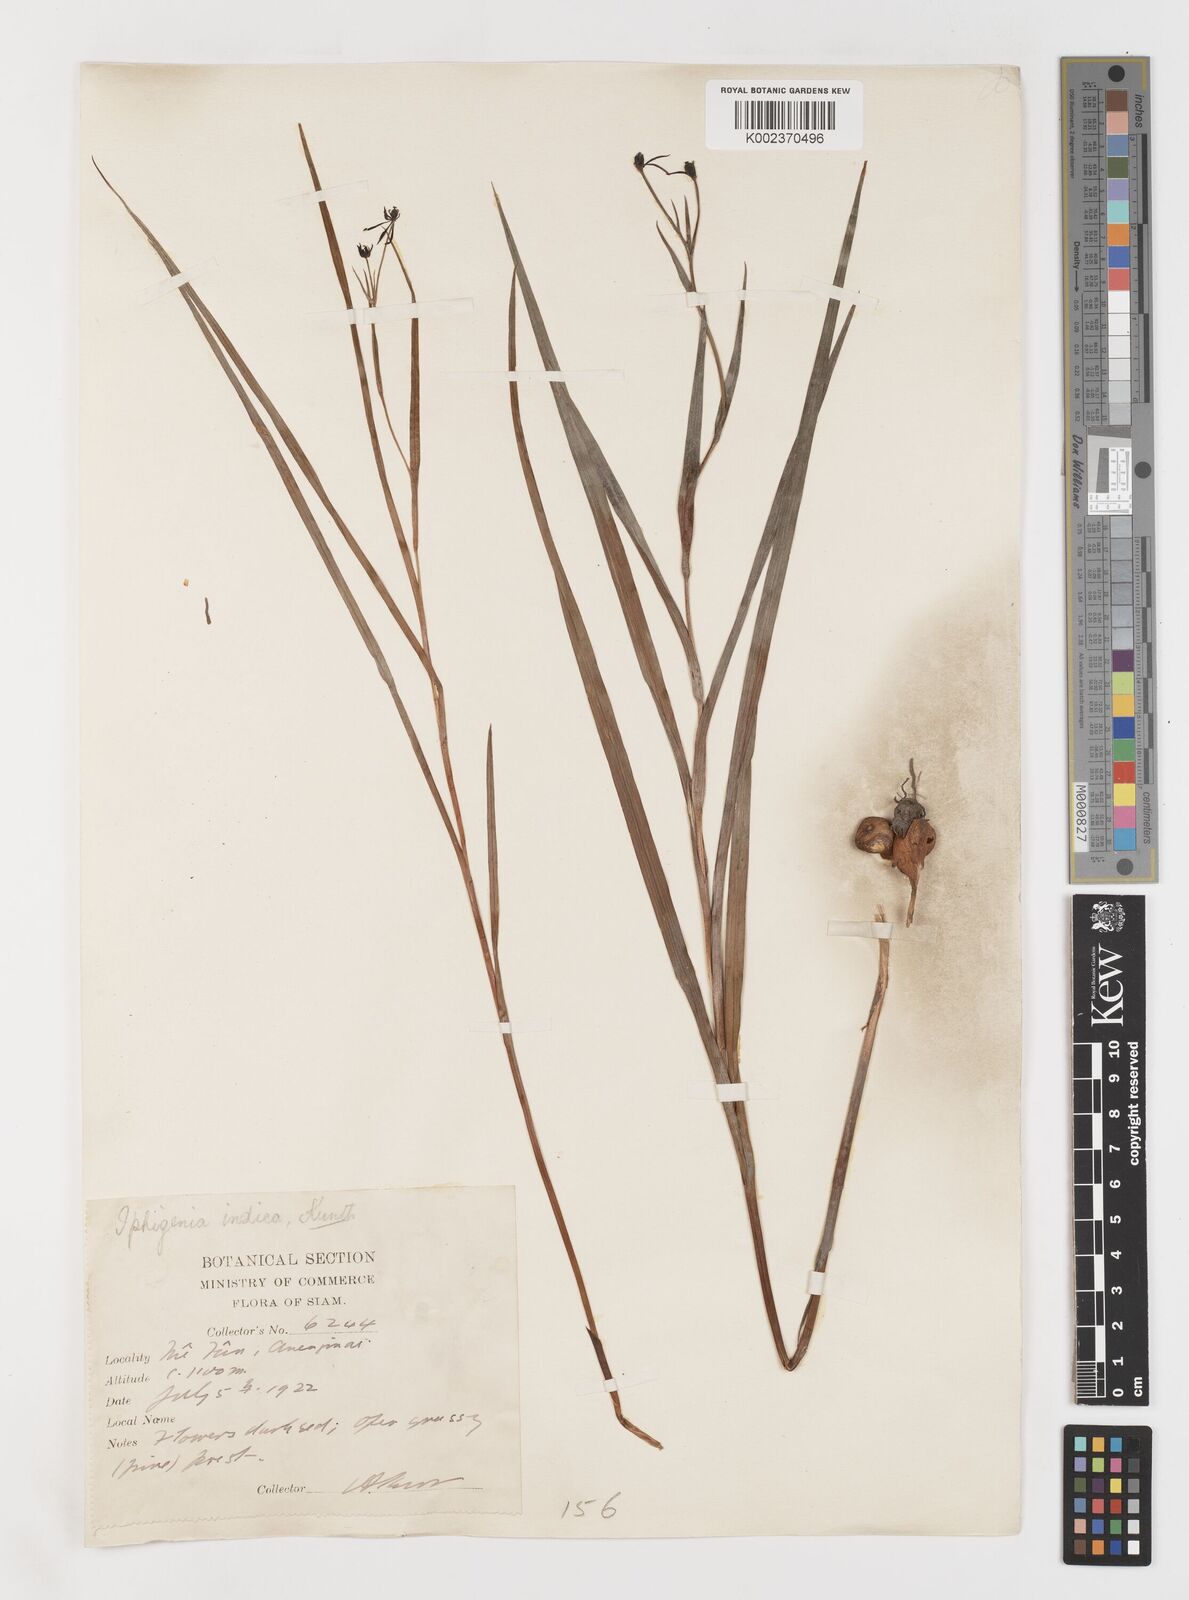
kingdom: Plantae
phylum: Tracheophyta
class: Liliopsida
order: Liliales
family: Colchicaceae
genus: Iphigenia
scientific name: Iphigenia indica
